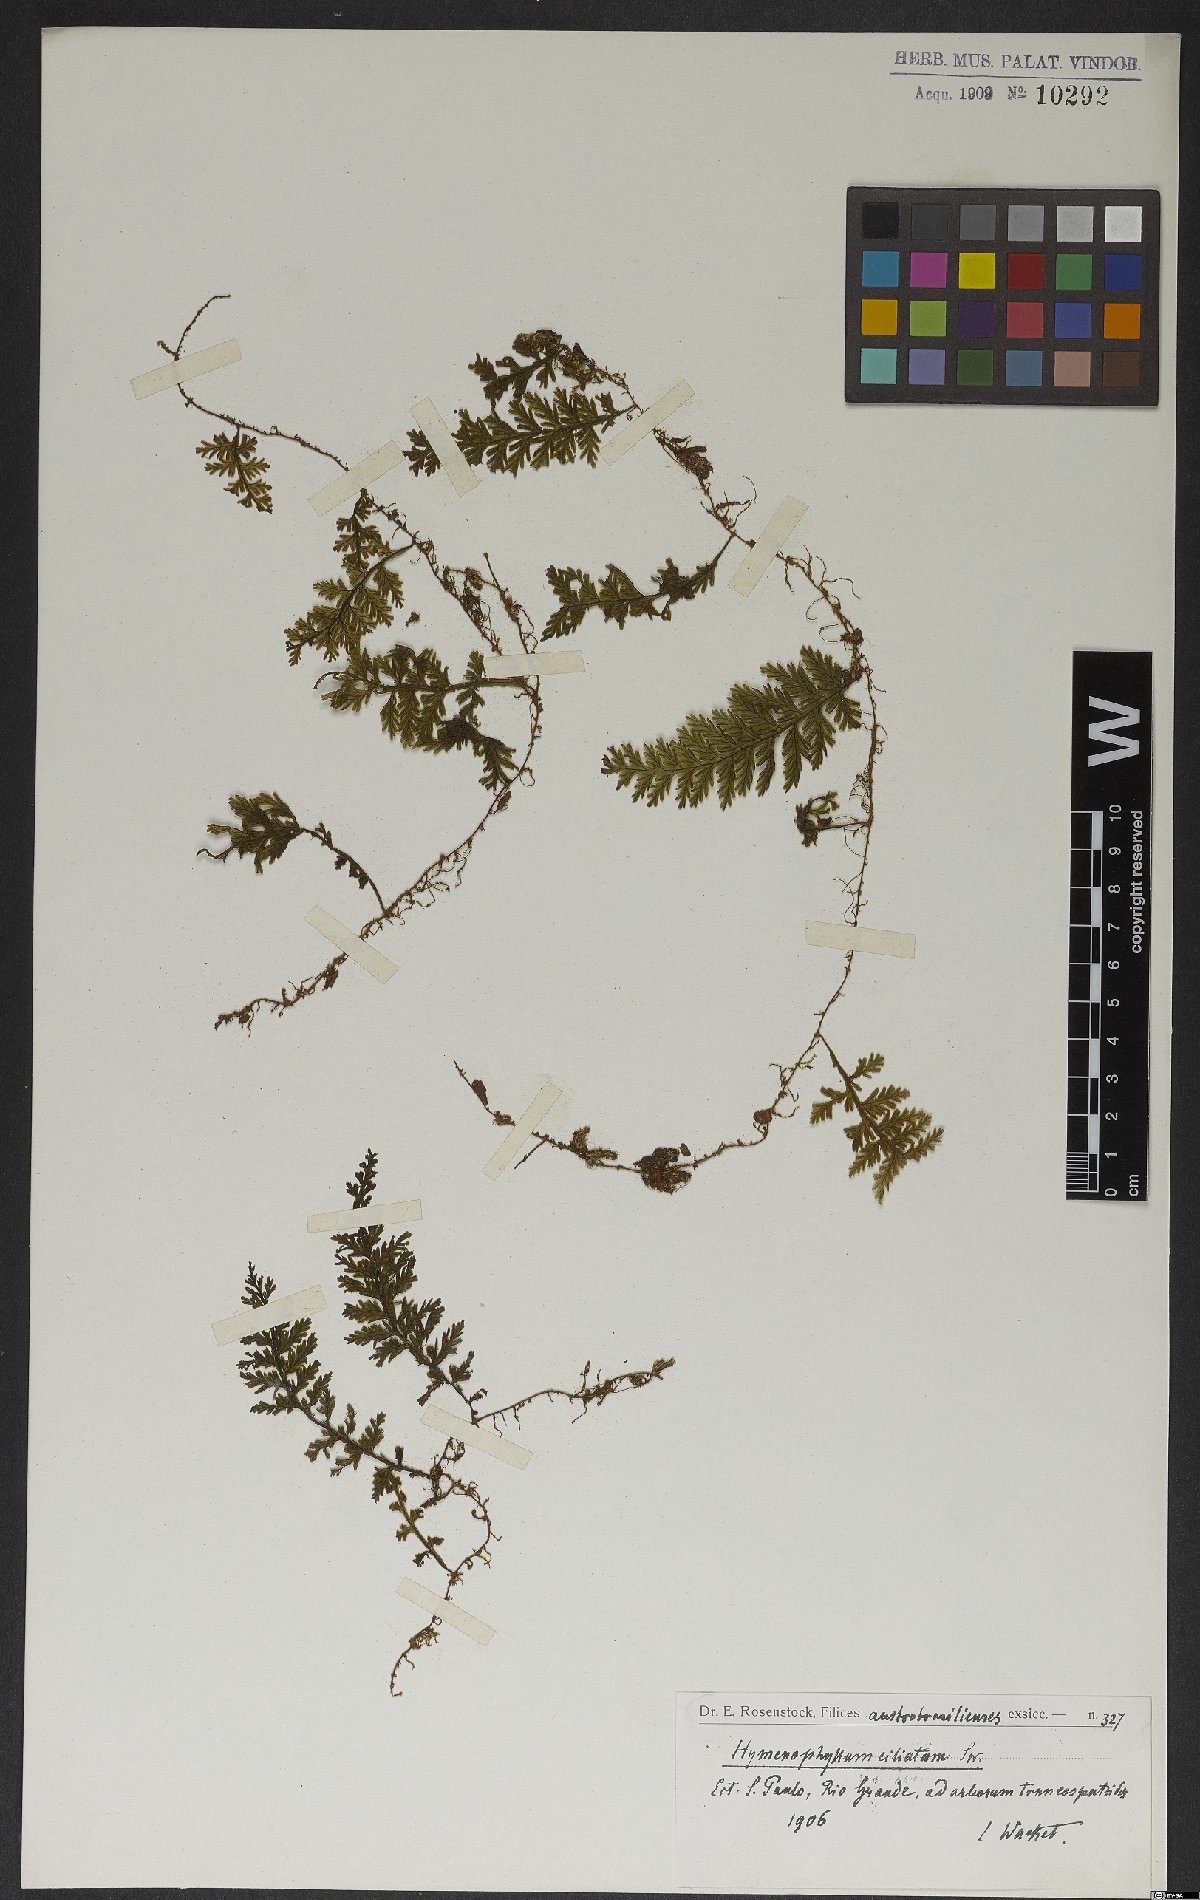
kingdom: Plantae
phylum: Tracheophyta
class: Polypodiopsida
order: Hymenophyllales
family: Hymenophyllaceae
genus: Hymenophyllum
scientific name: Hymenophyllum hirsutum
